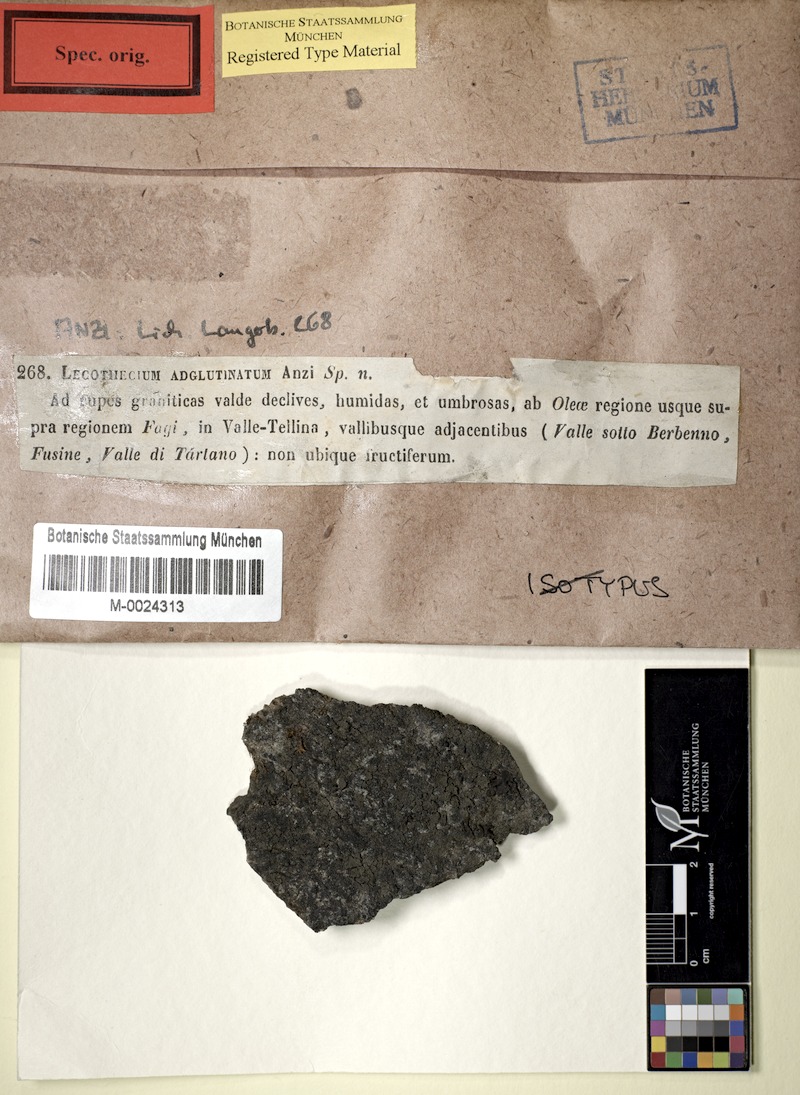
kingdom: Fungi
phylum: Ascomycota
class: Lecanoromycetes
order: Peltigerales
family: Placynthiaceae
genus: Placynthium
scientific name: Placynthium flabellosum
